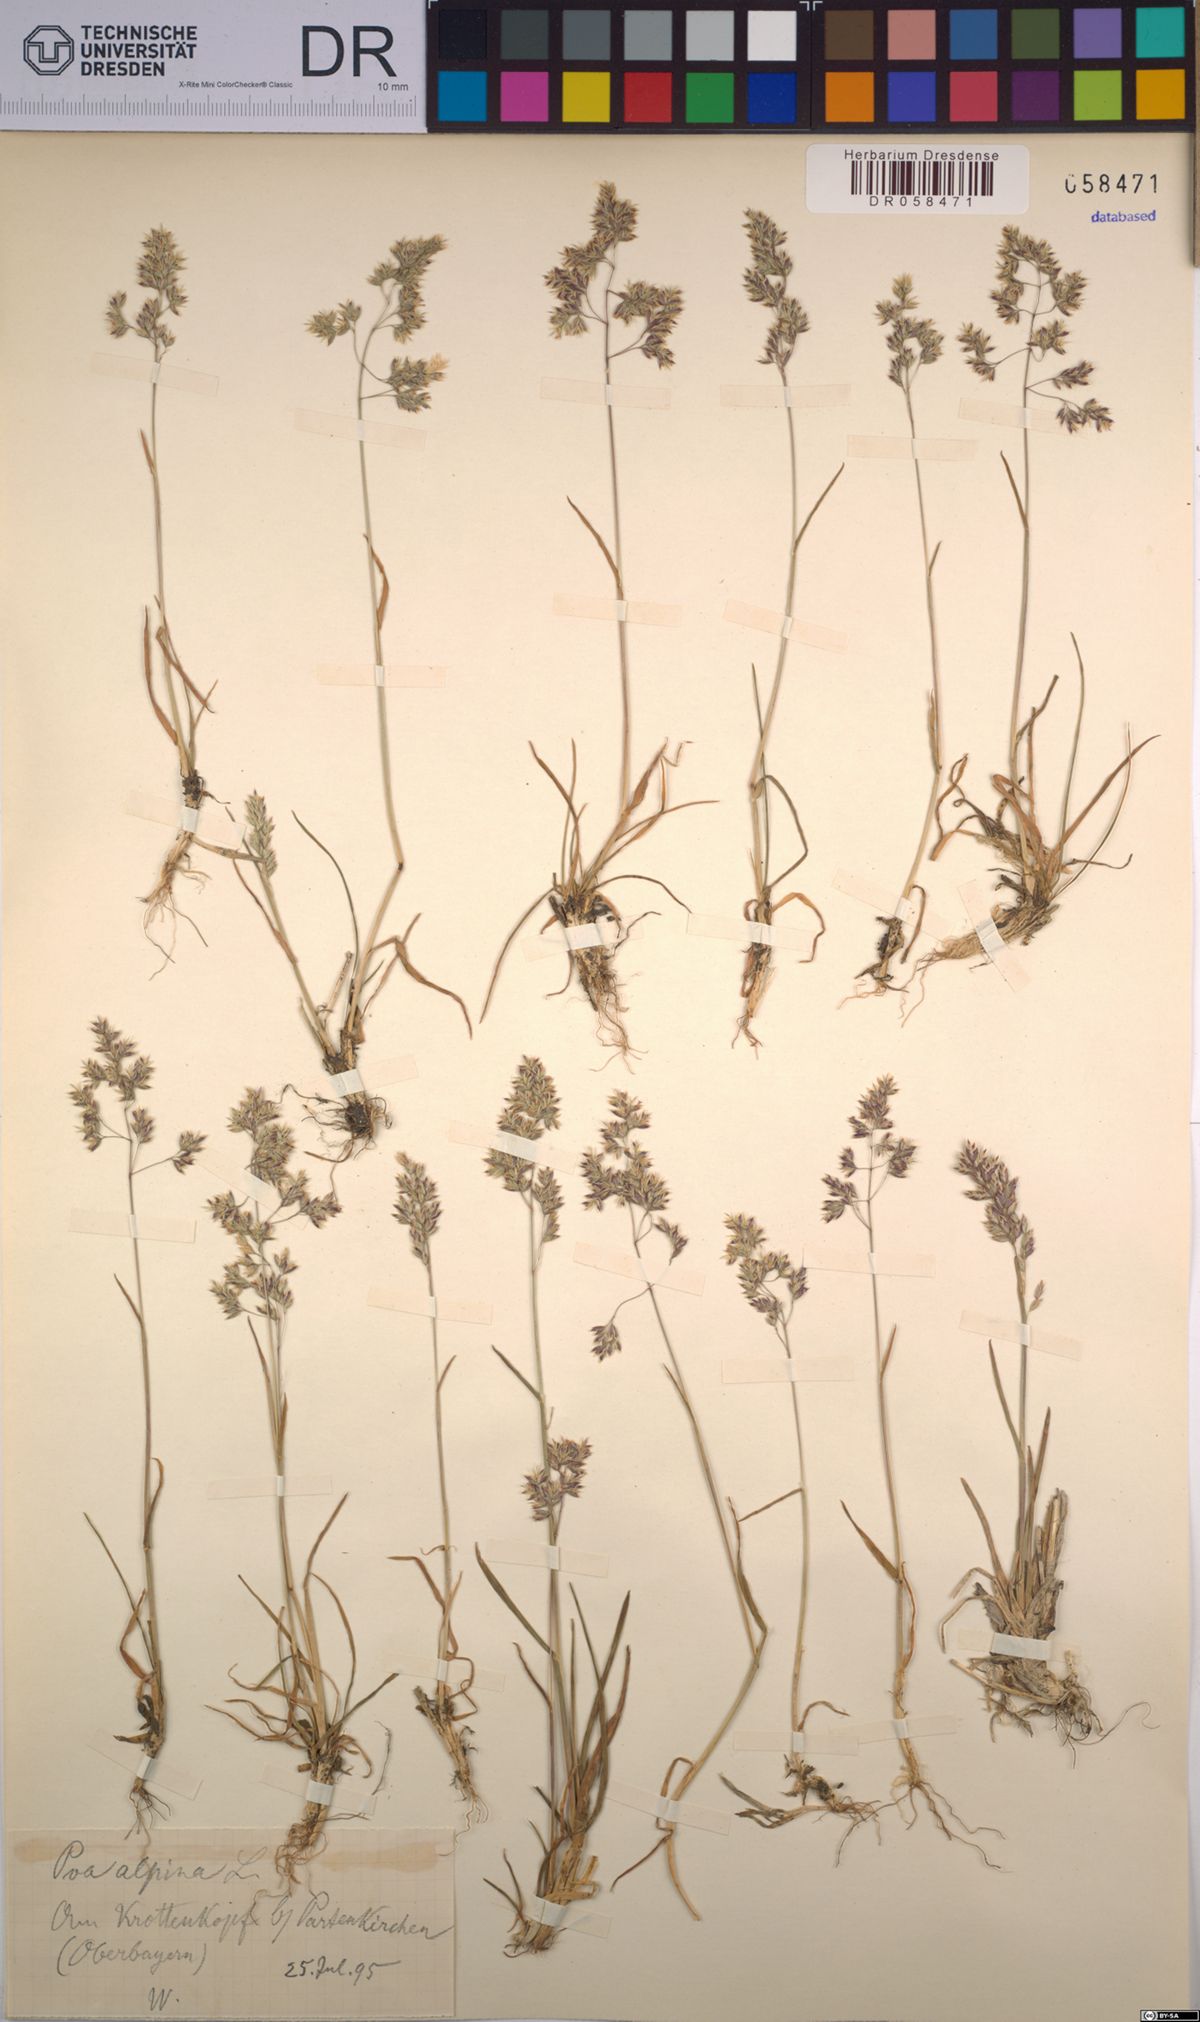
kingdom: Plantae
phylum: Tracheophyta
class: Liliopsida
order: Poales
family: Poaceae
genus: Poa
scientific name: Poa alpina
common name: Alpine bluegrass
